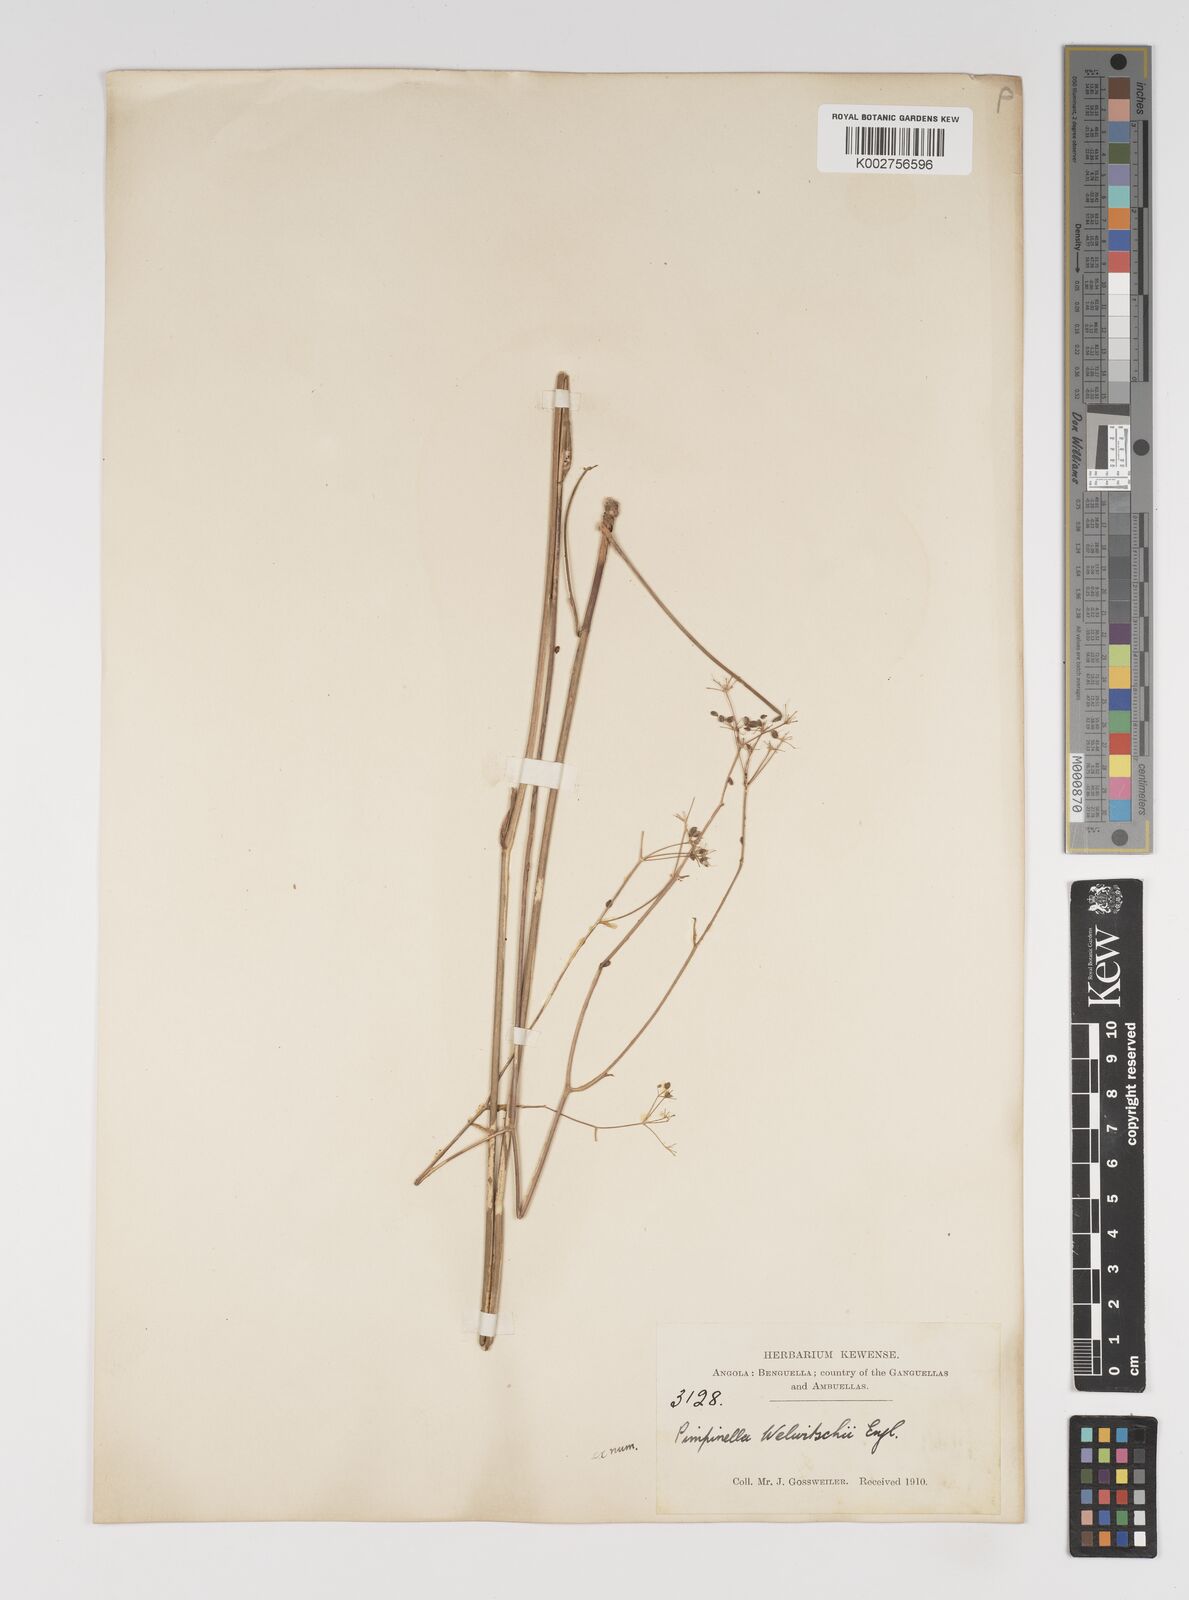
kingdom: Plantae
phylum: Tracheophyta
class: Magnoliopsida
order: Apiales
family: Apiaceae
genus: Pimpinella
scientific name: Pimpinella huillensis
